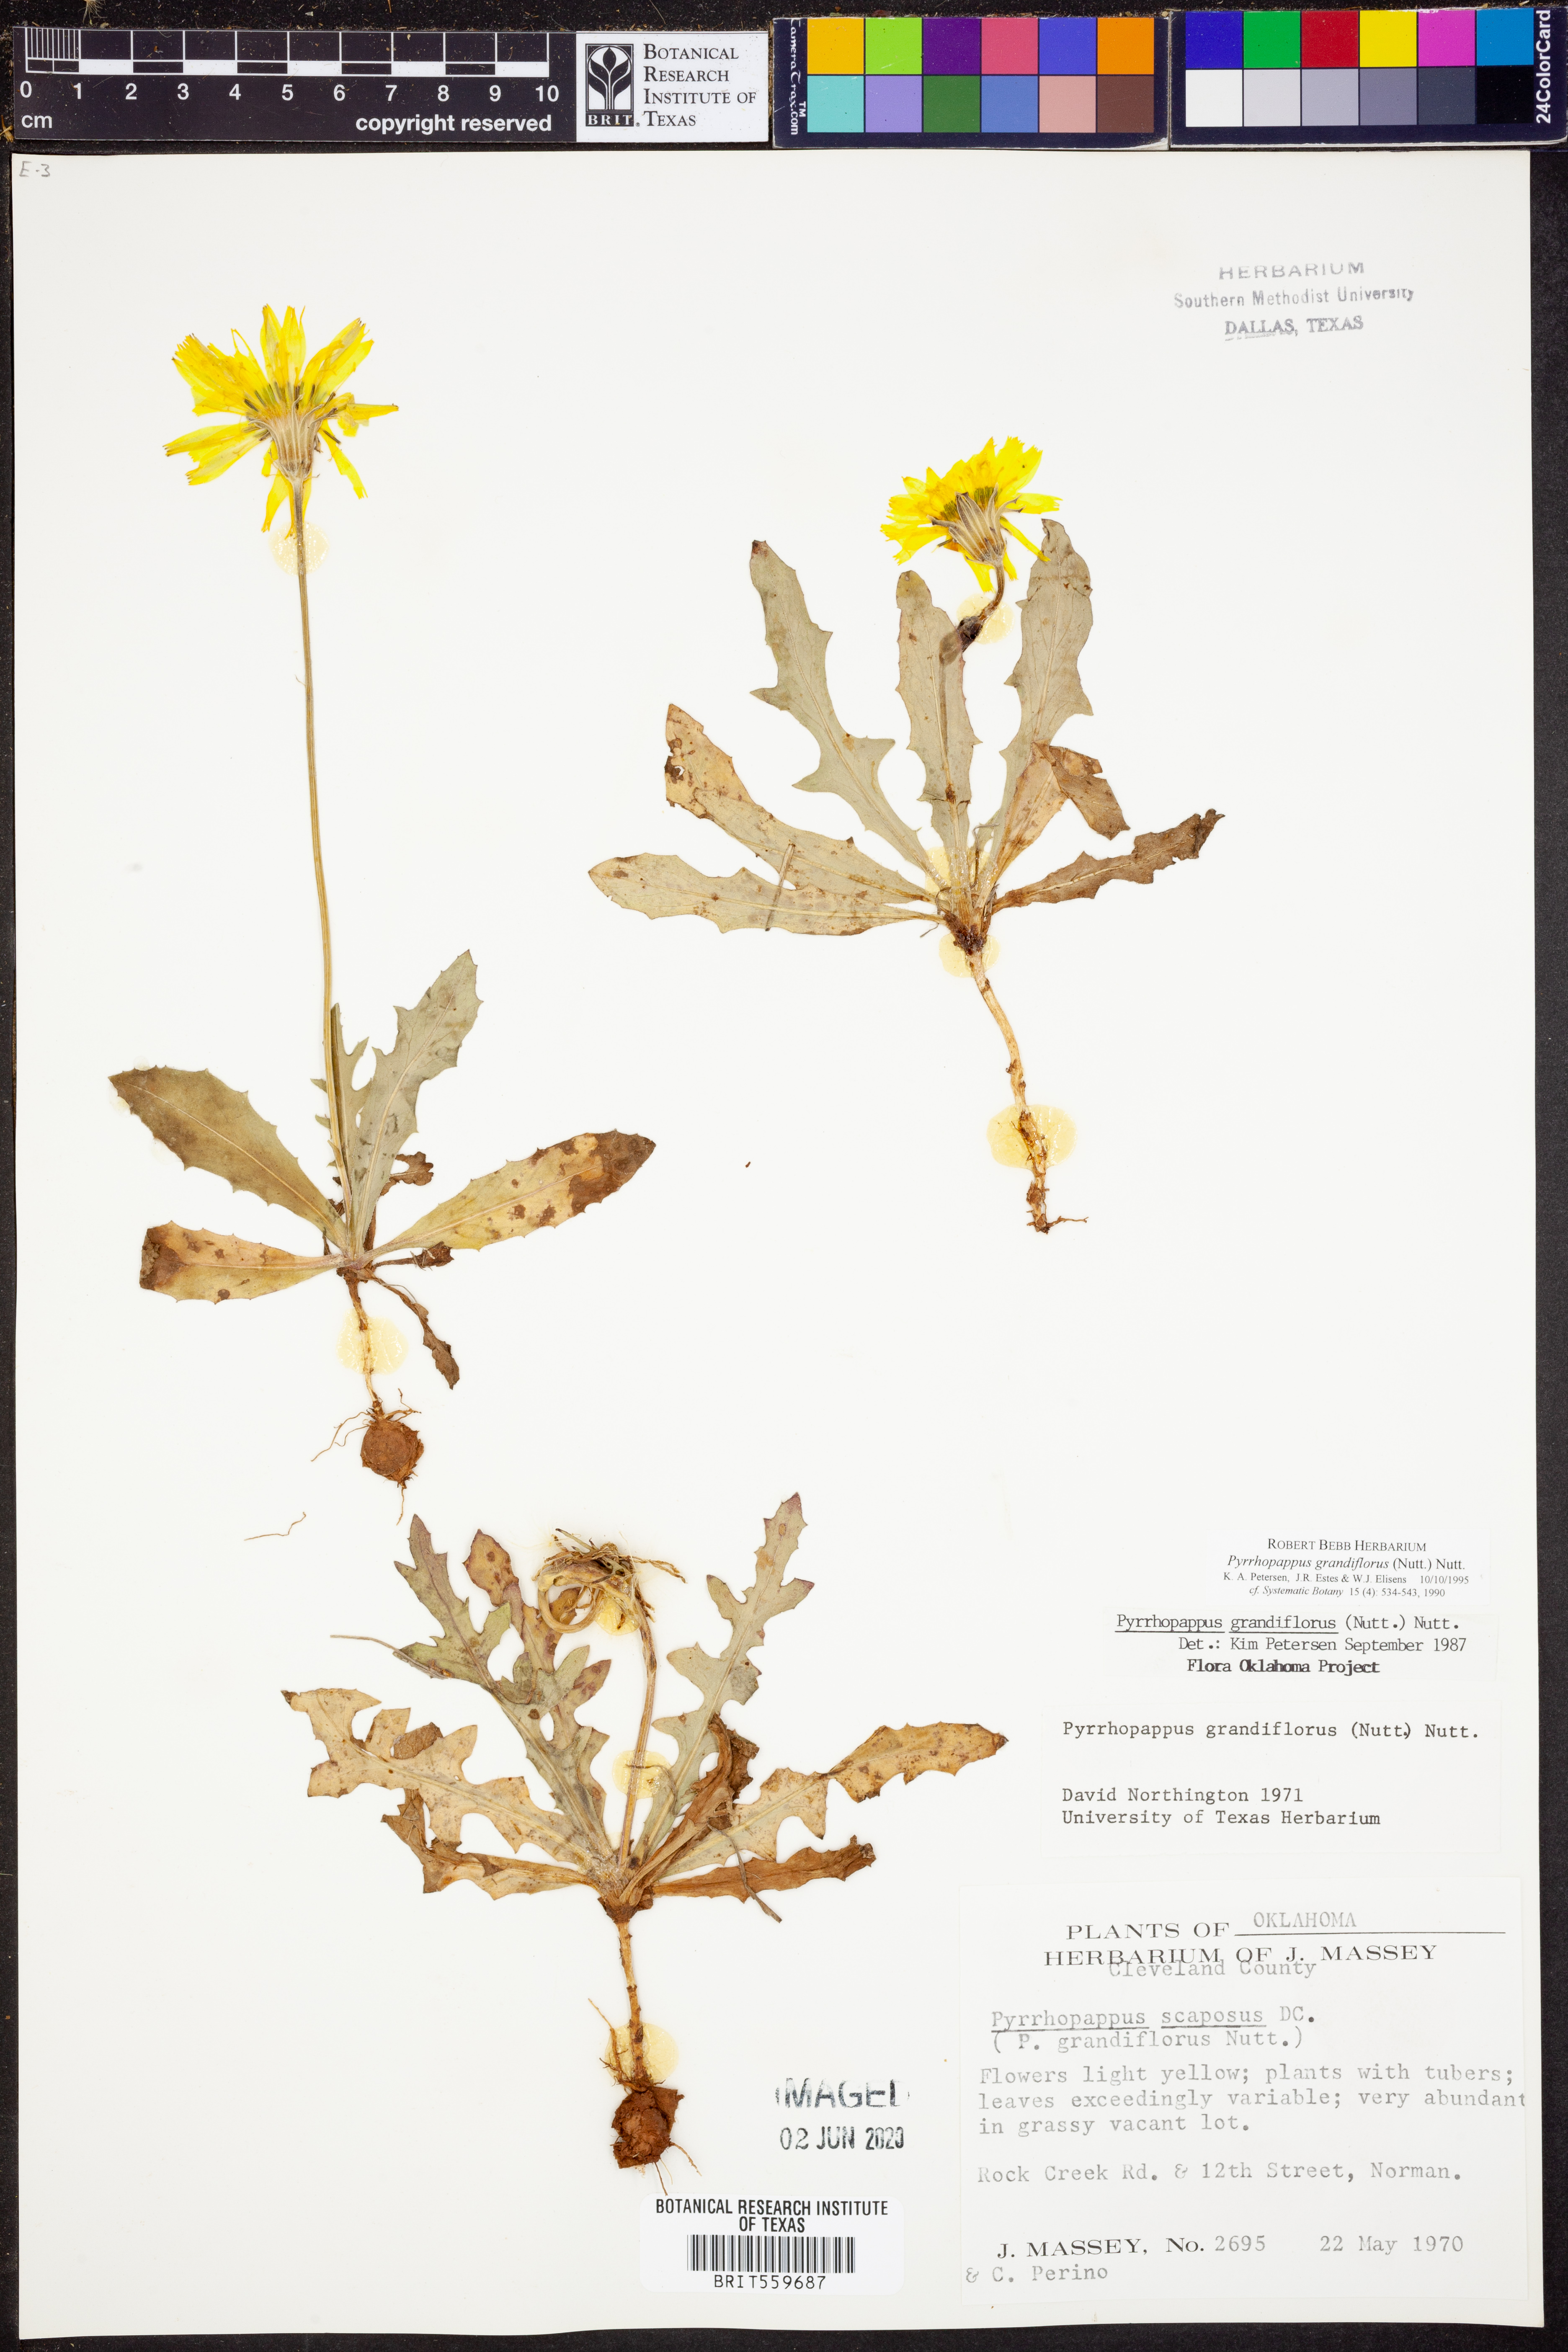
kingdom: Plantae
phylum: Tracheophyta
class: Magnoliopsida
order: Asterales
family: Asteraceae
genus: Pyrrhopappus
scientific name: Pyrrhopappus grandiflorus
